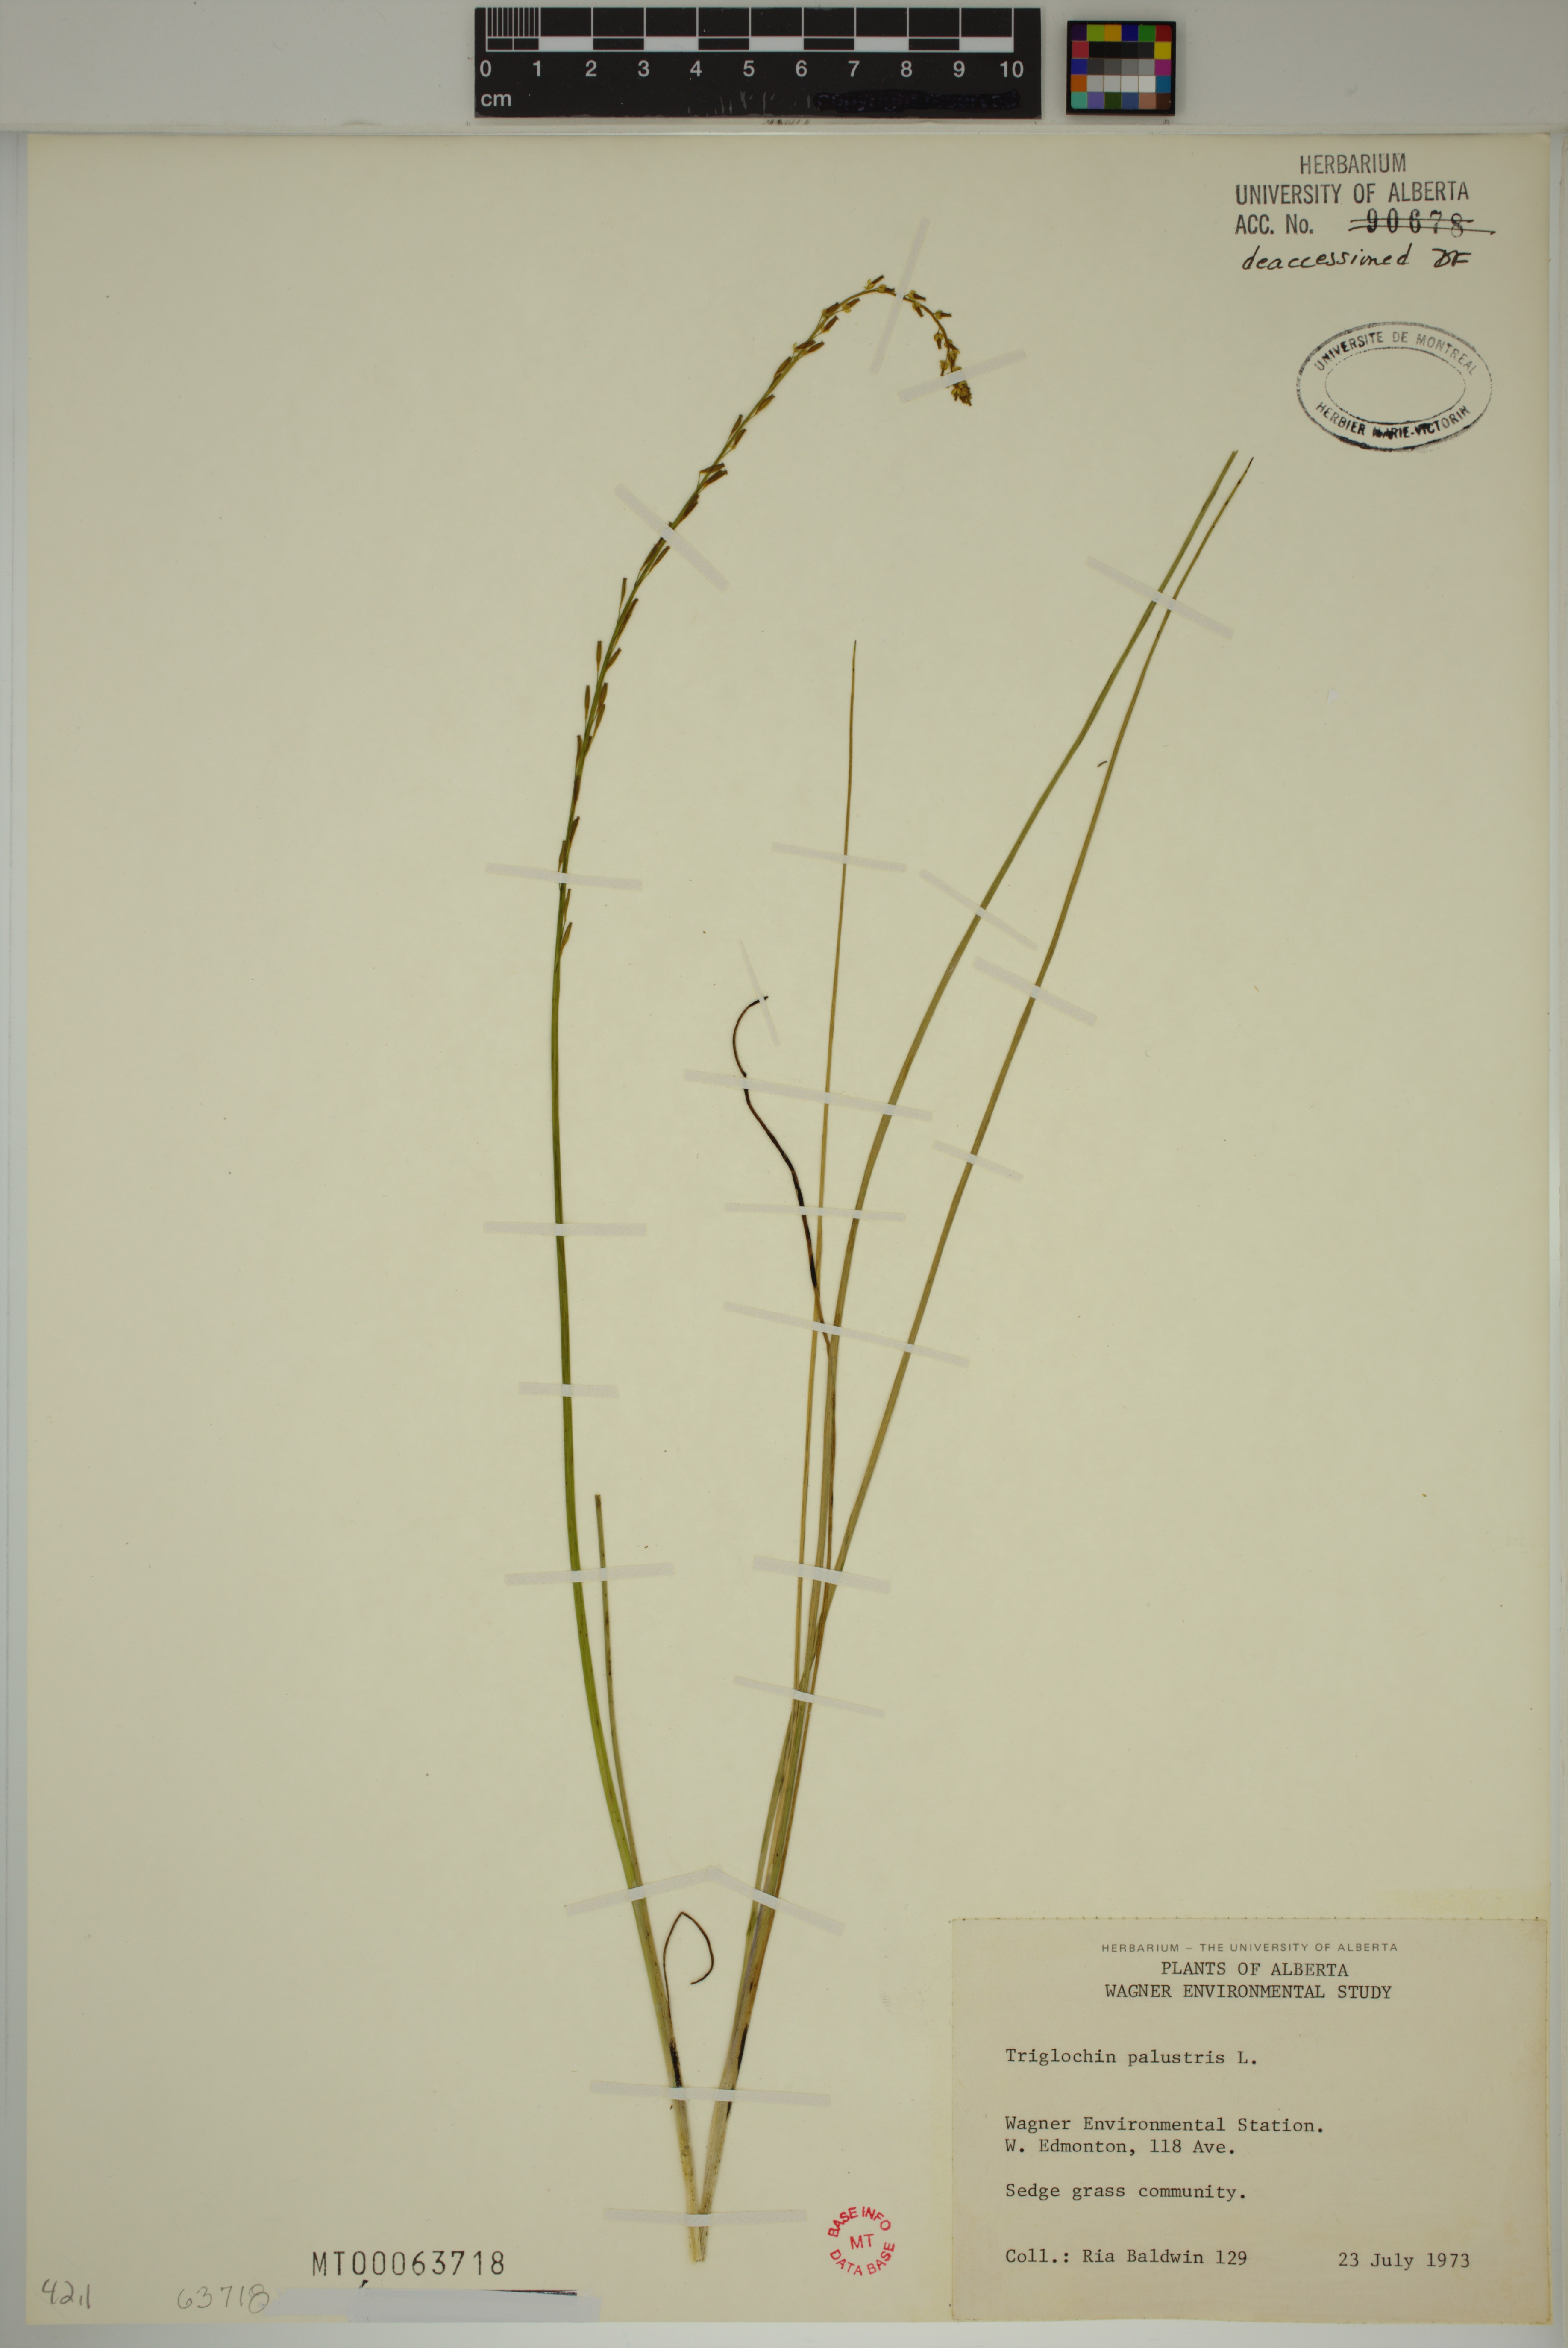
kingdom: Plantae
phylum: Tracheophyta
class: Liliopsida
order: Alismatales
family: Juncaginaceae
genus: Triglochin
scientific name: Triglochin palustris
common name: Marsh arrowgrass
